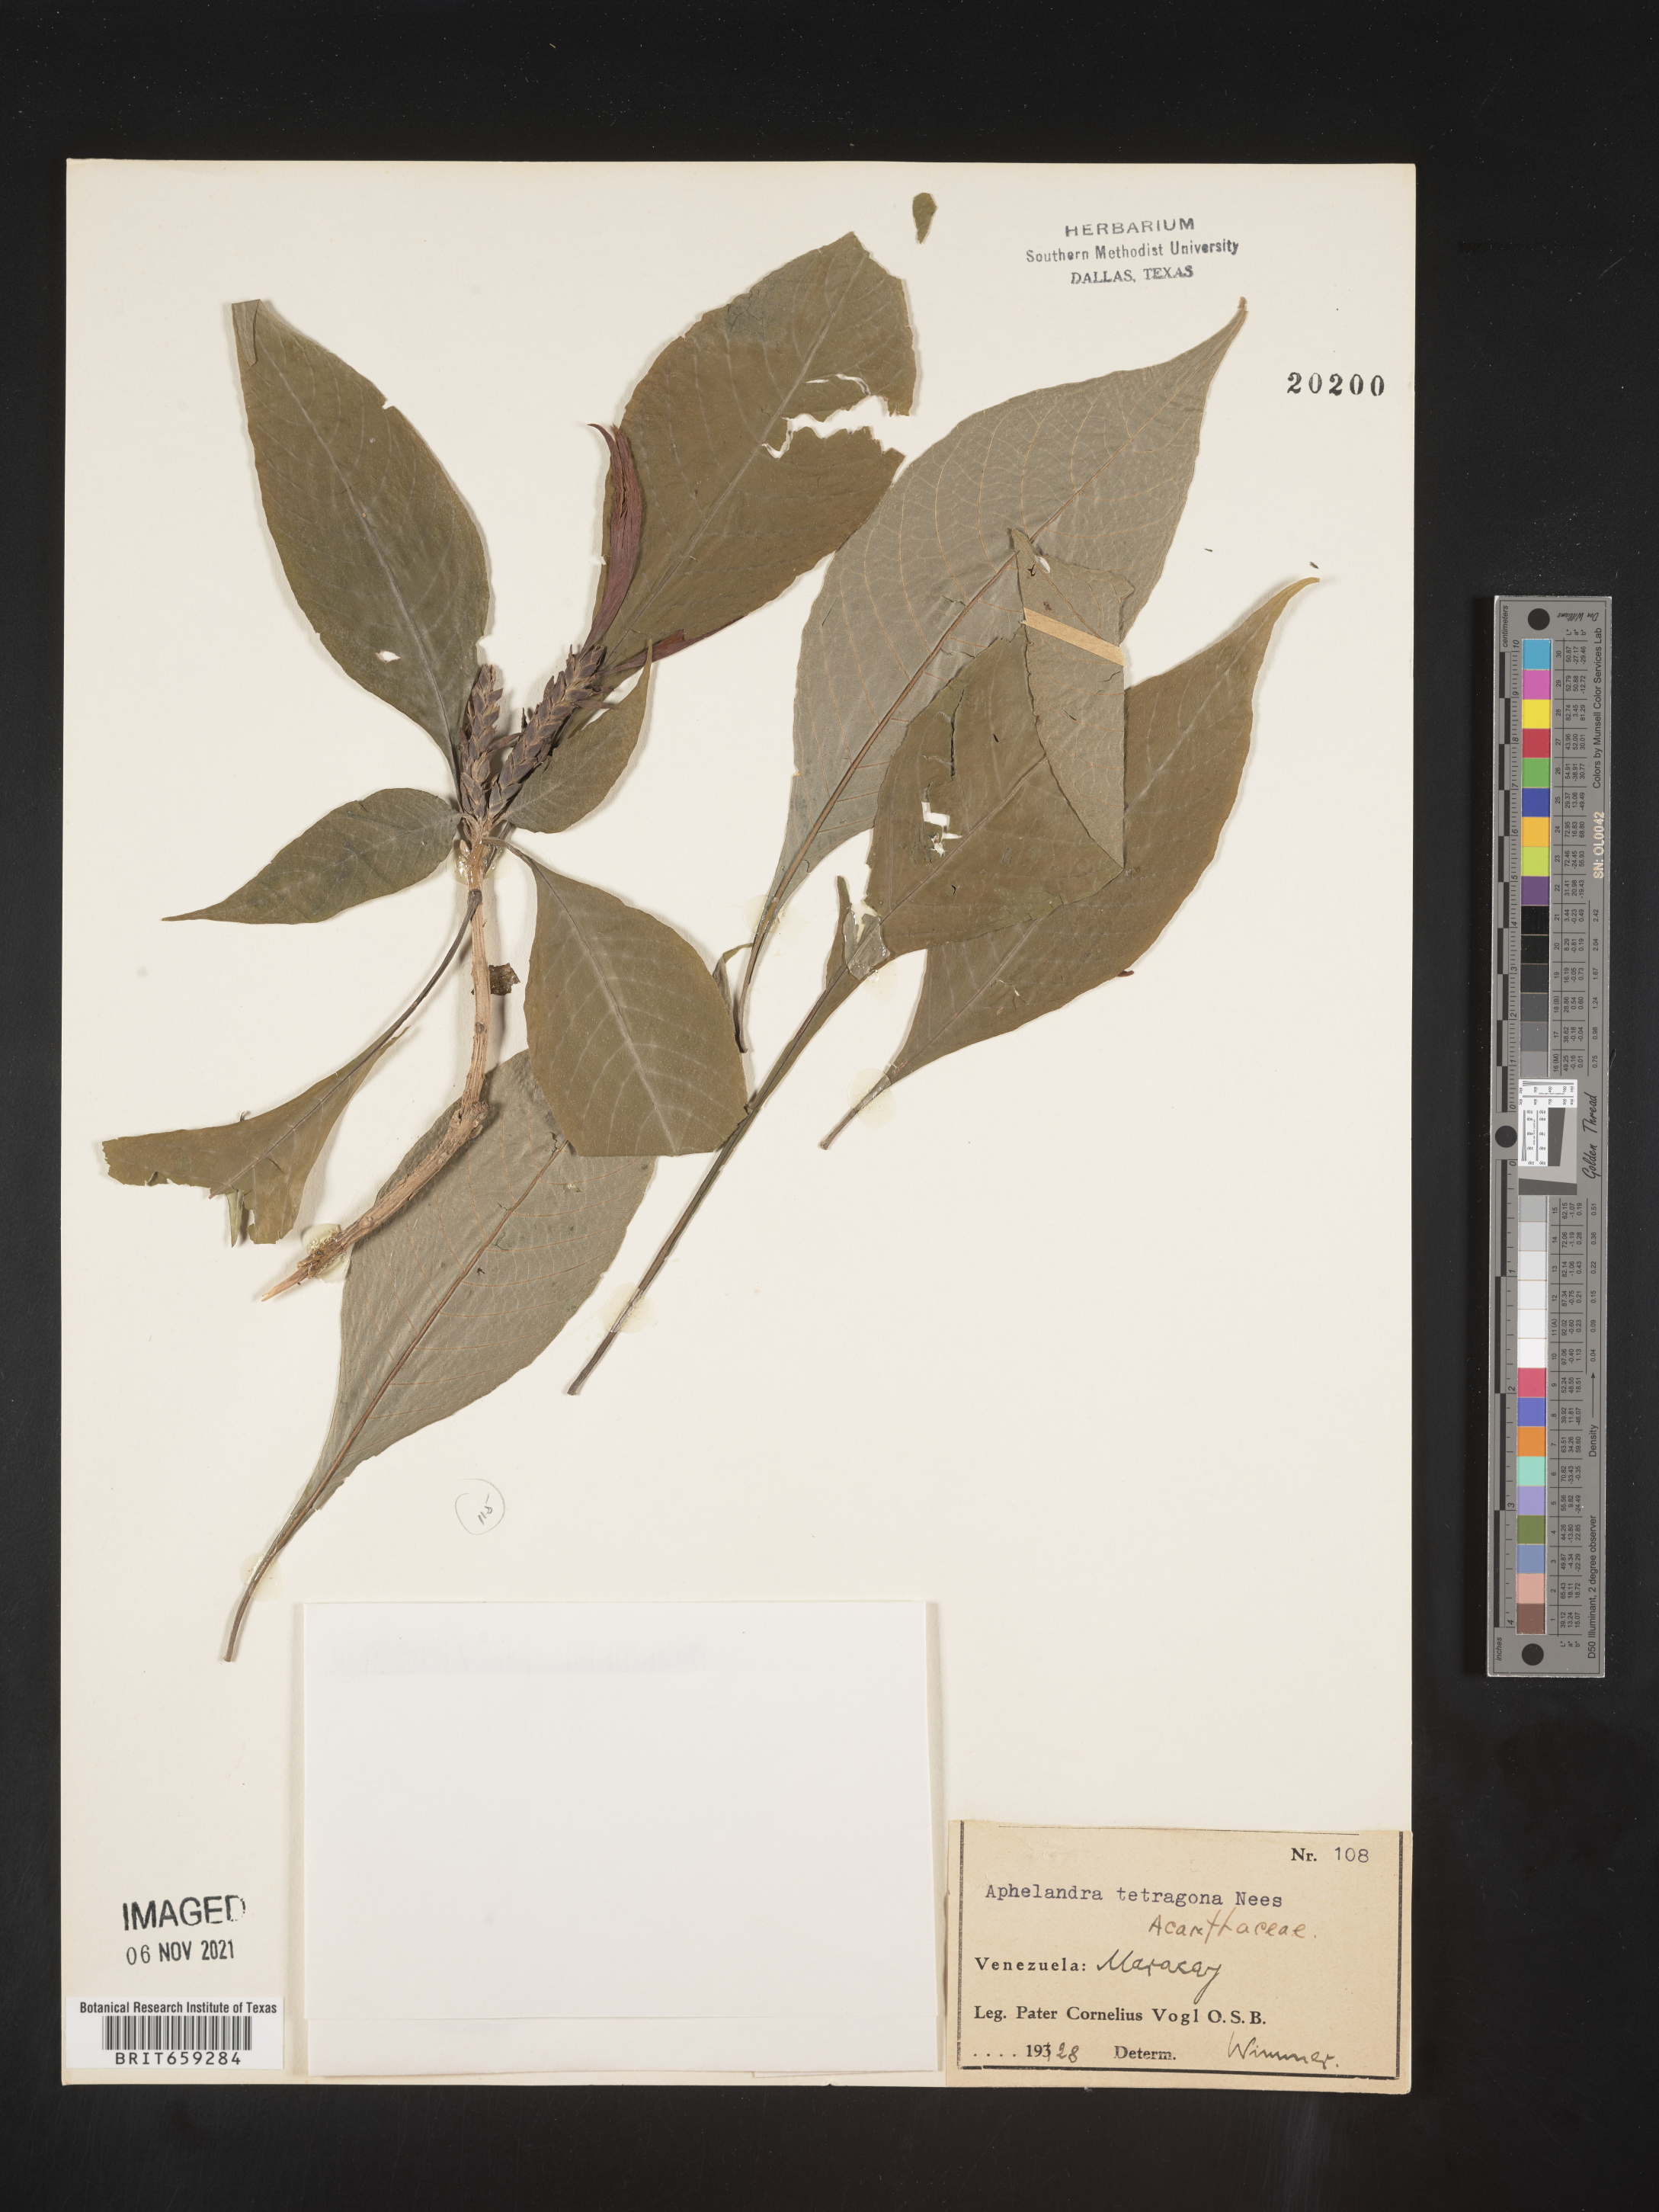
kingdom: Plantae
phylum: Tracheophyta
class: Magnoliopsida
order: Lamiales
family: Acanthaceae
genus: Aphelandra
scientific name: Aphelandra
